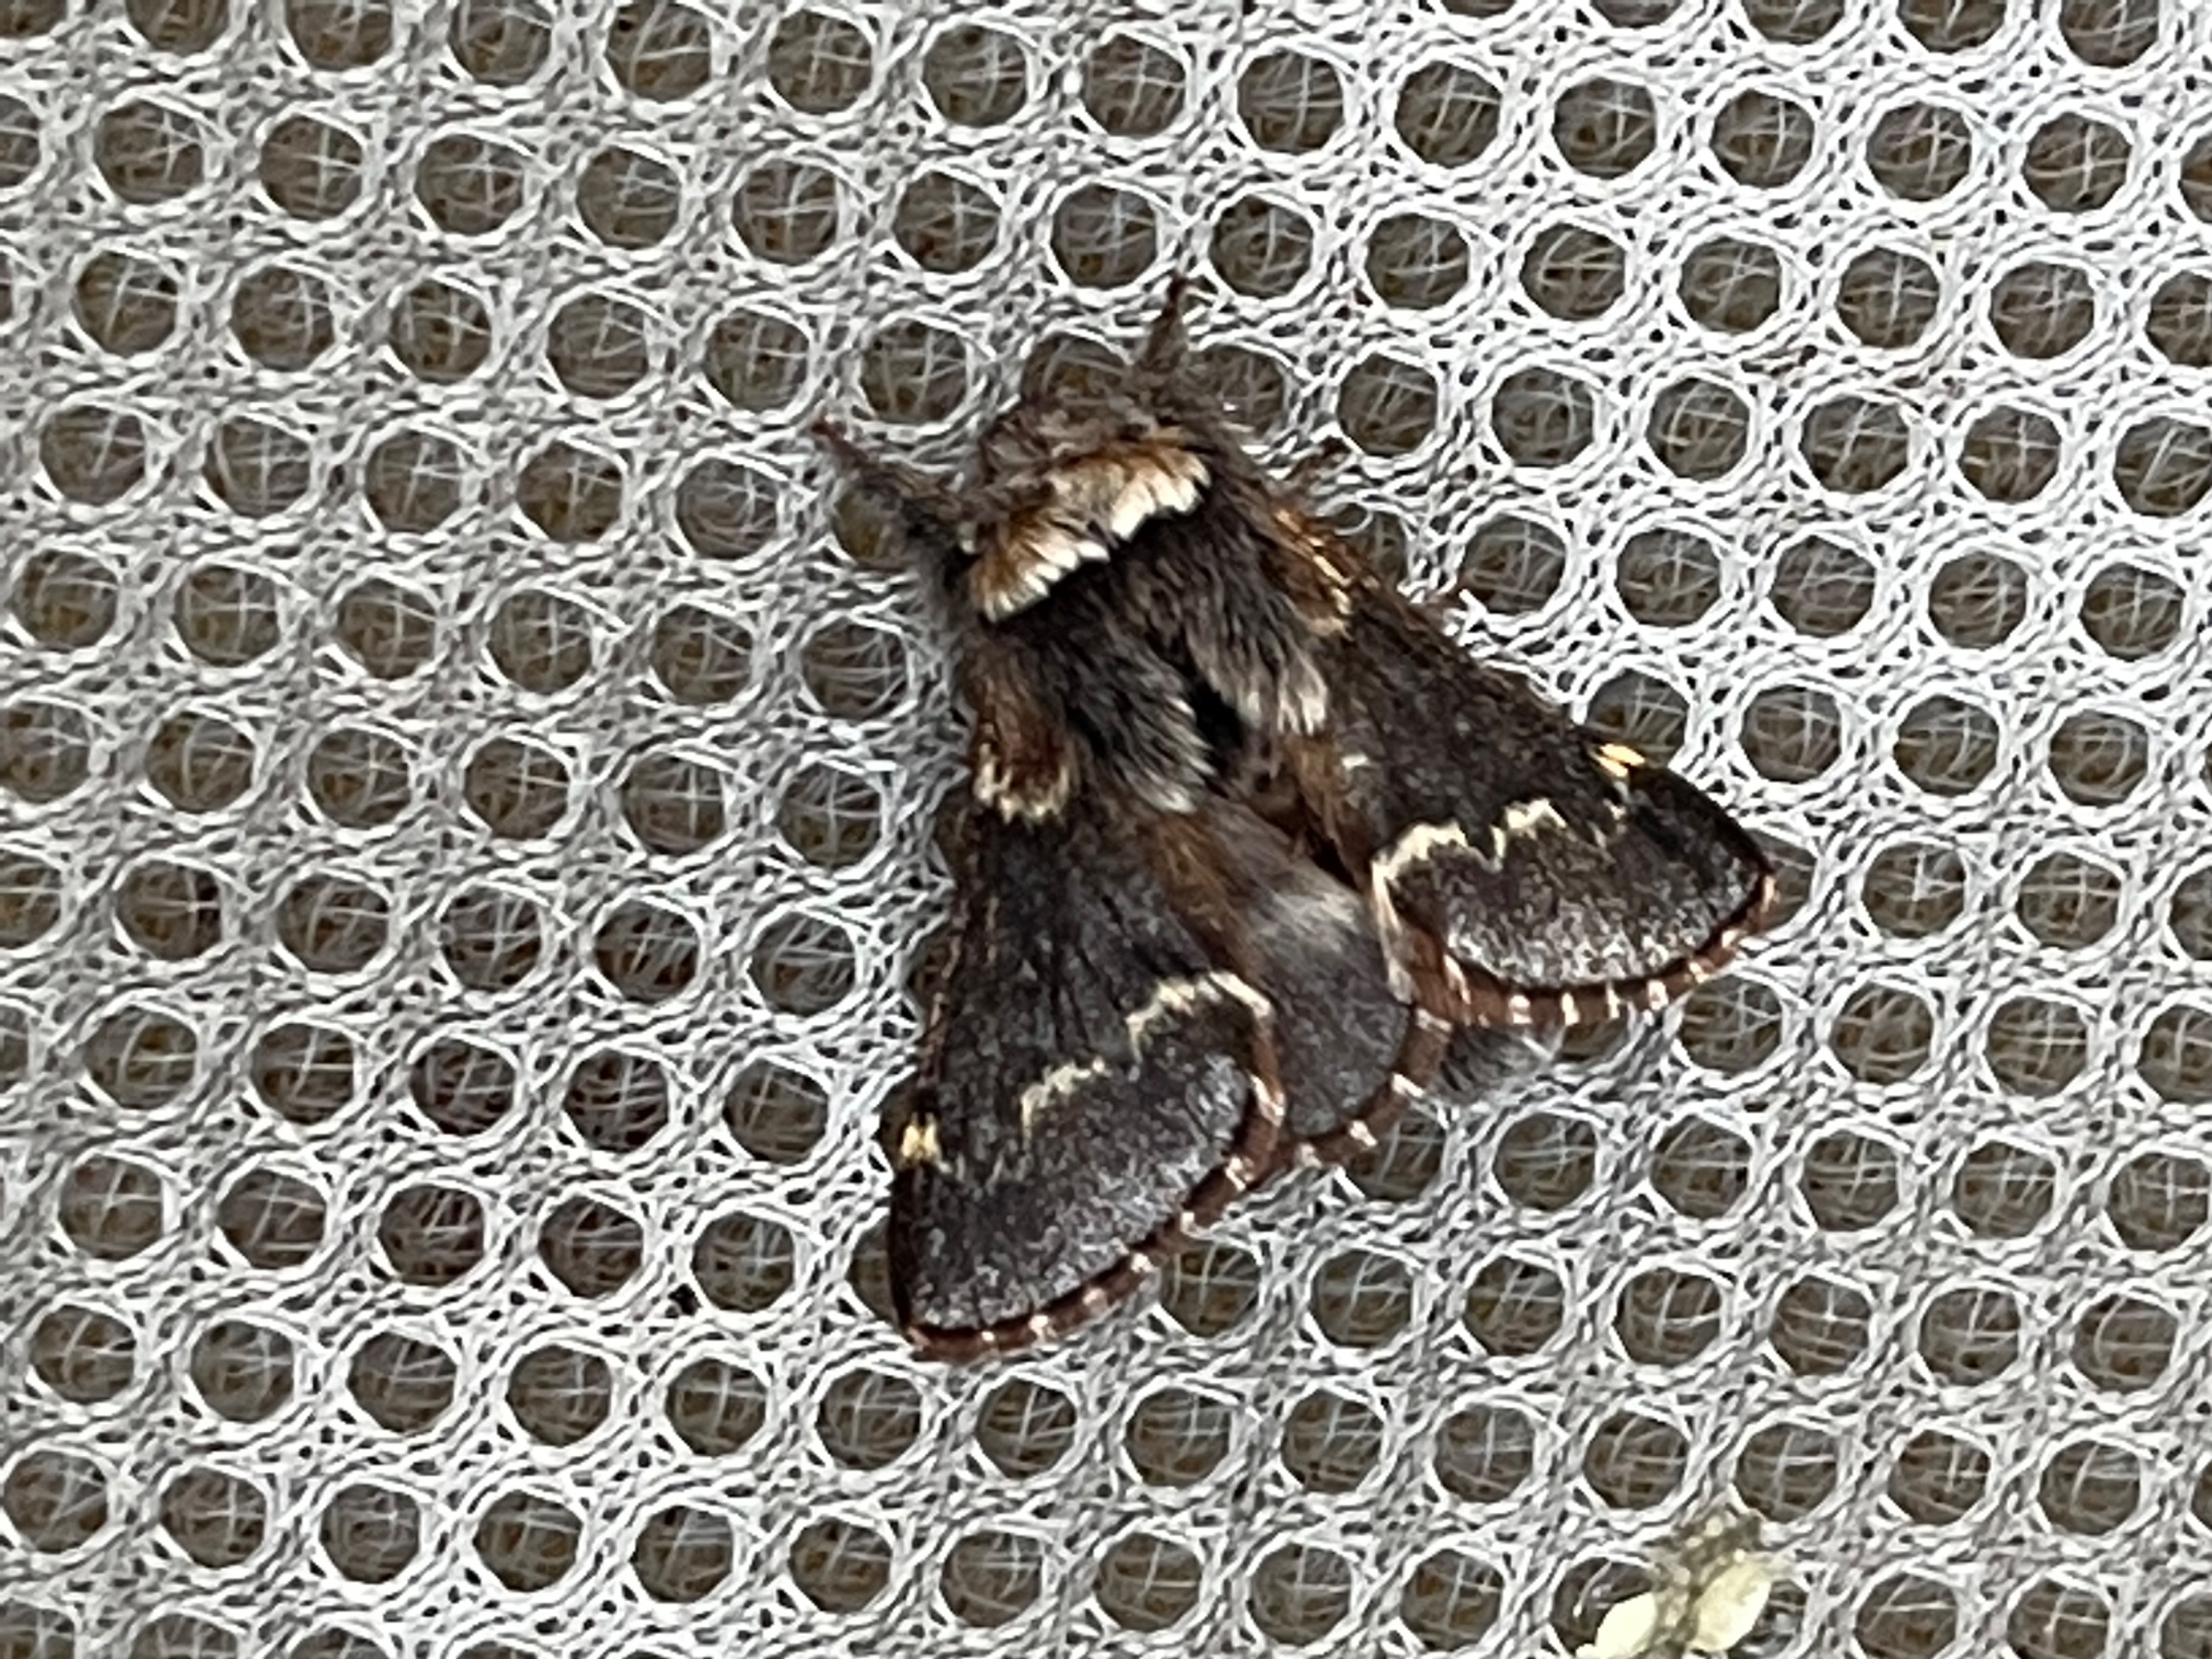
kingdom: Animalia
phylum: Arthropoda
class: Insecta
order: Lepidoptera
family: Lasiocampidae
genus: Poecilocampa
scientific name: Poecilocampa populi
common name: Poppelspinder
